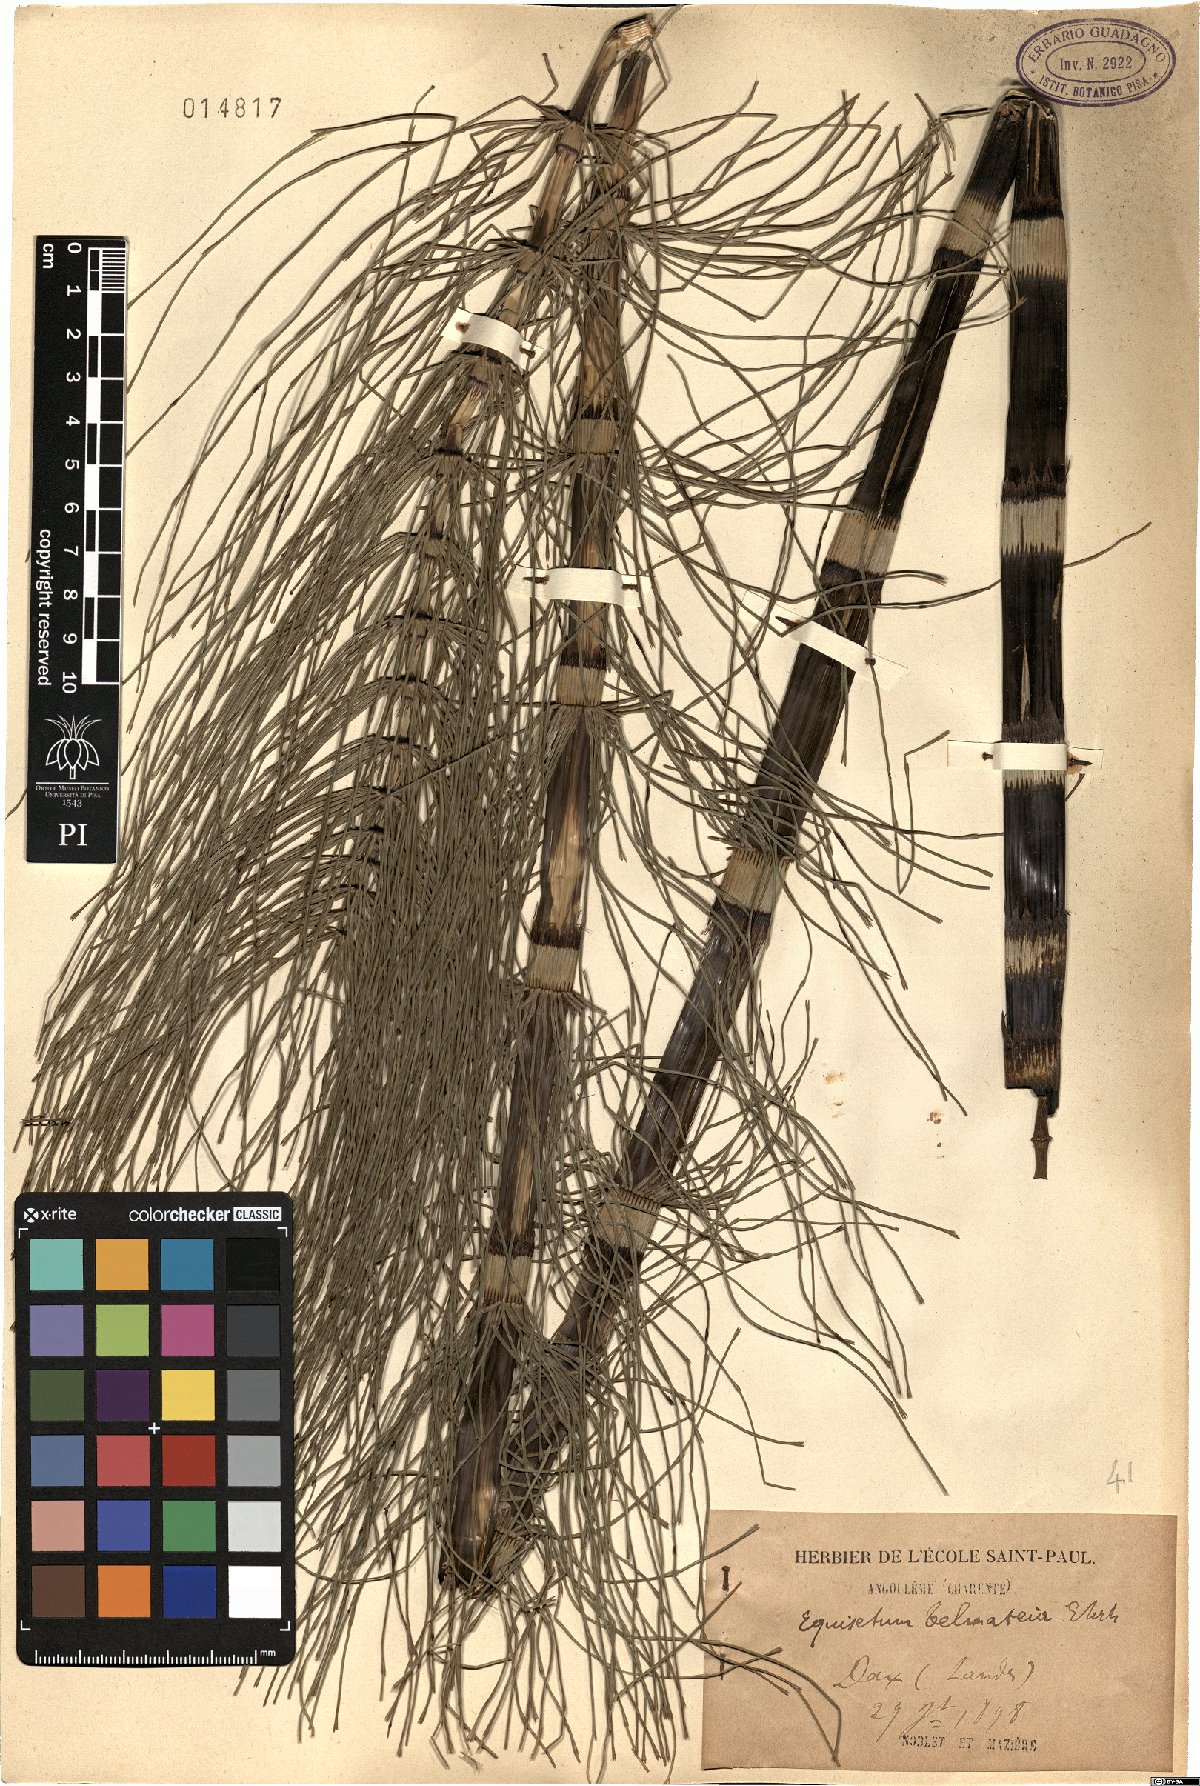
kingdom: Plantae
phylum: Tracheophyta
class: Polypodiopsida
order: Equisetales
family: Equisetaceae
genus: Equisetum
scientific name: Equisetum telmateia
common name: Great horsetail
